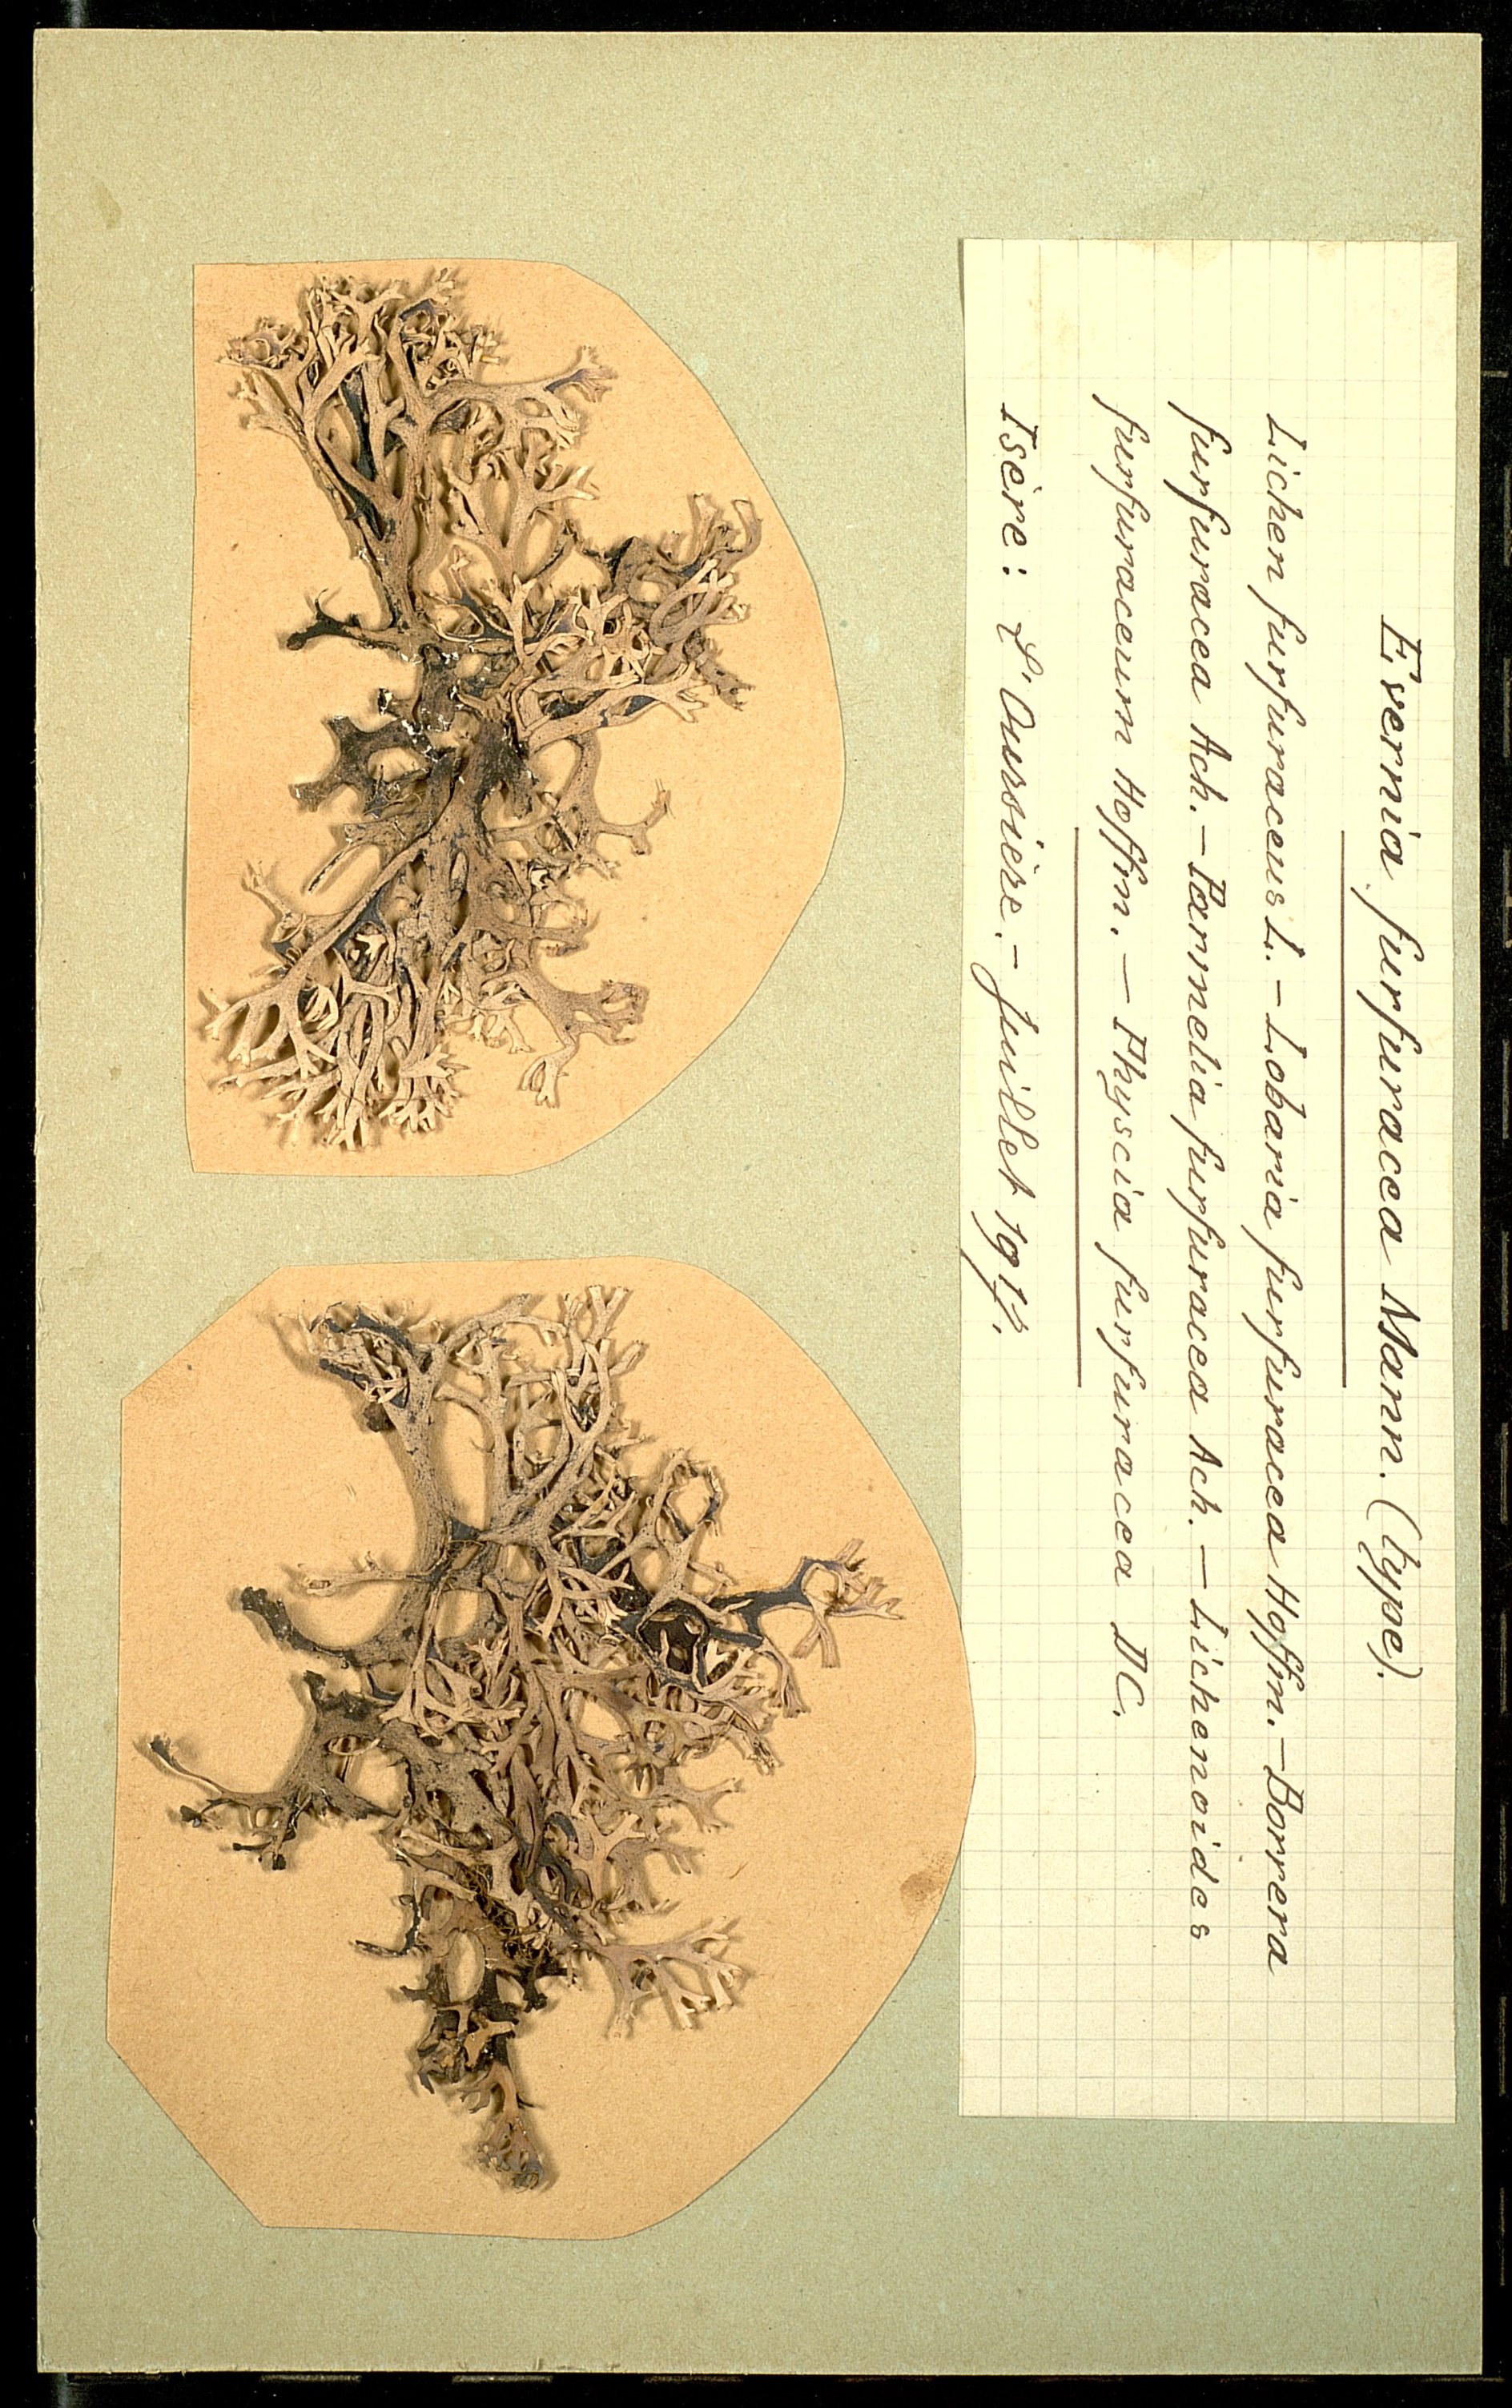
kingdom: Fungi
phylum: Ascomycota
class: Lecanoromycetes
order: Lecanorales
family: Parmeliaceae
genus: Pseudevernia
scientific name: Pseudevernia furfuracea
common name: Tree moss
